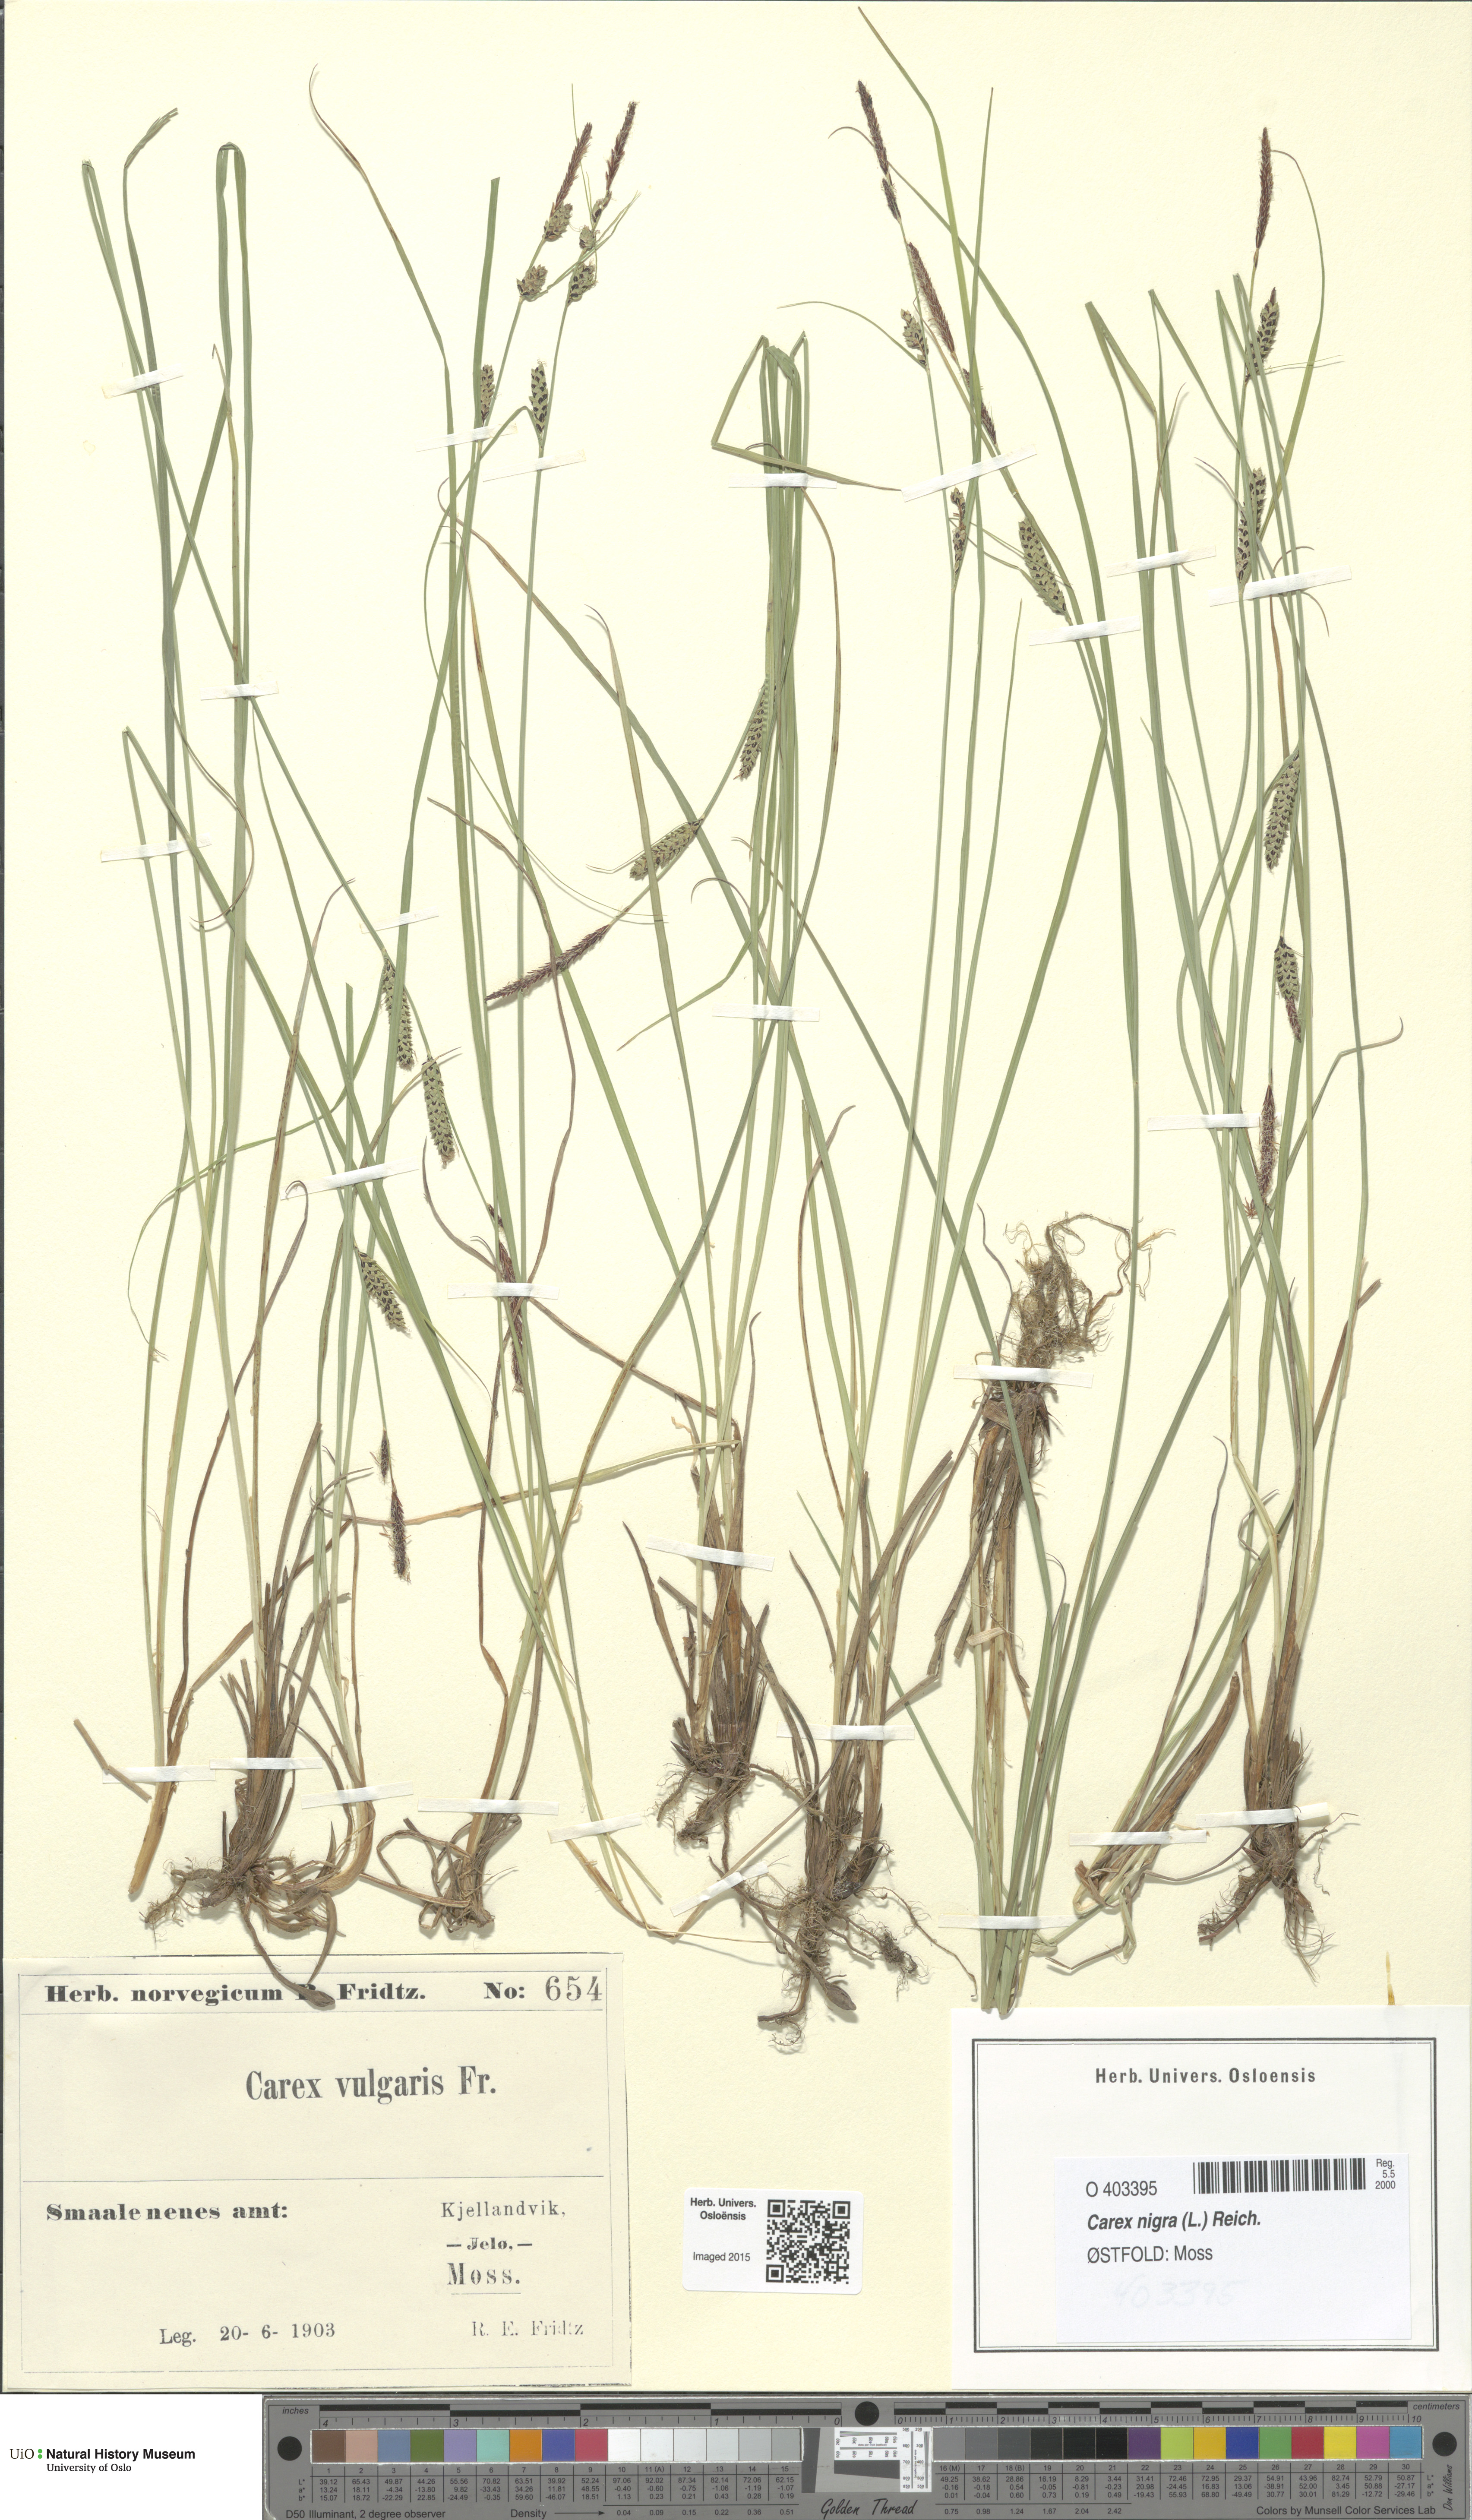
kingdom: Plantae
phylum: Tracheophyta
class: Liliopsida
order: Poales
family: Cyperaceae
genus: Carex
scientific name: Carex nigra
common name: Common sedge
